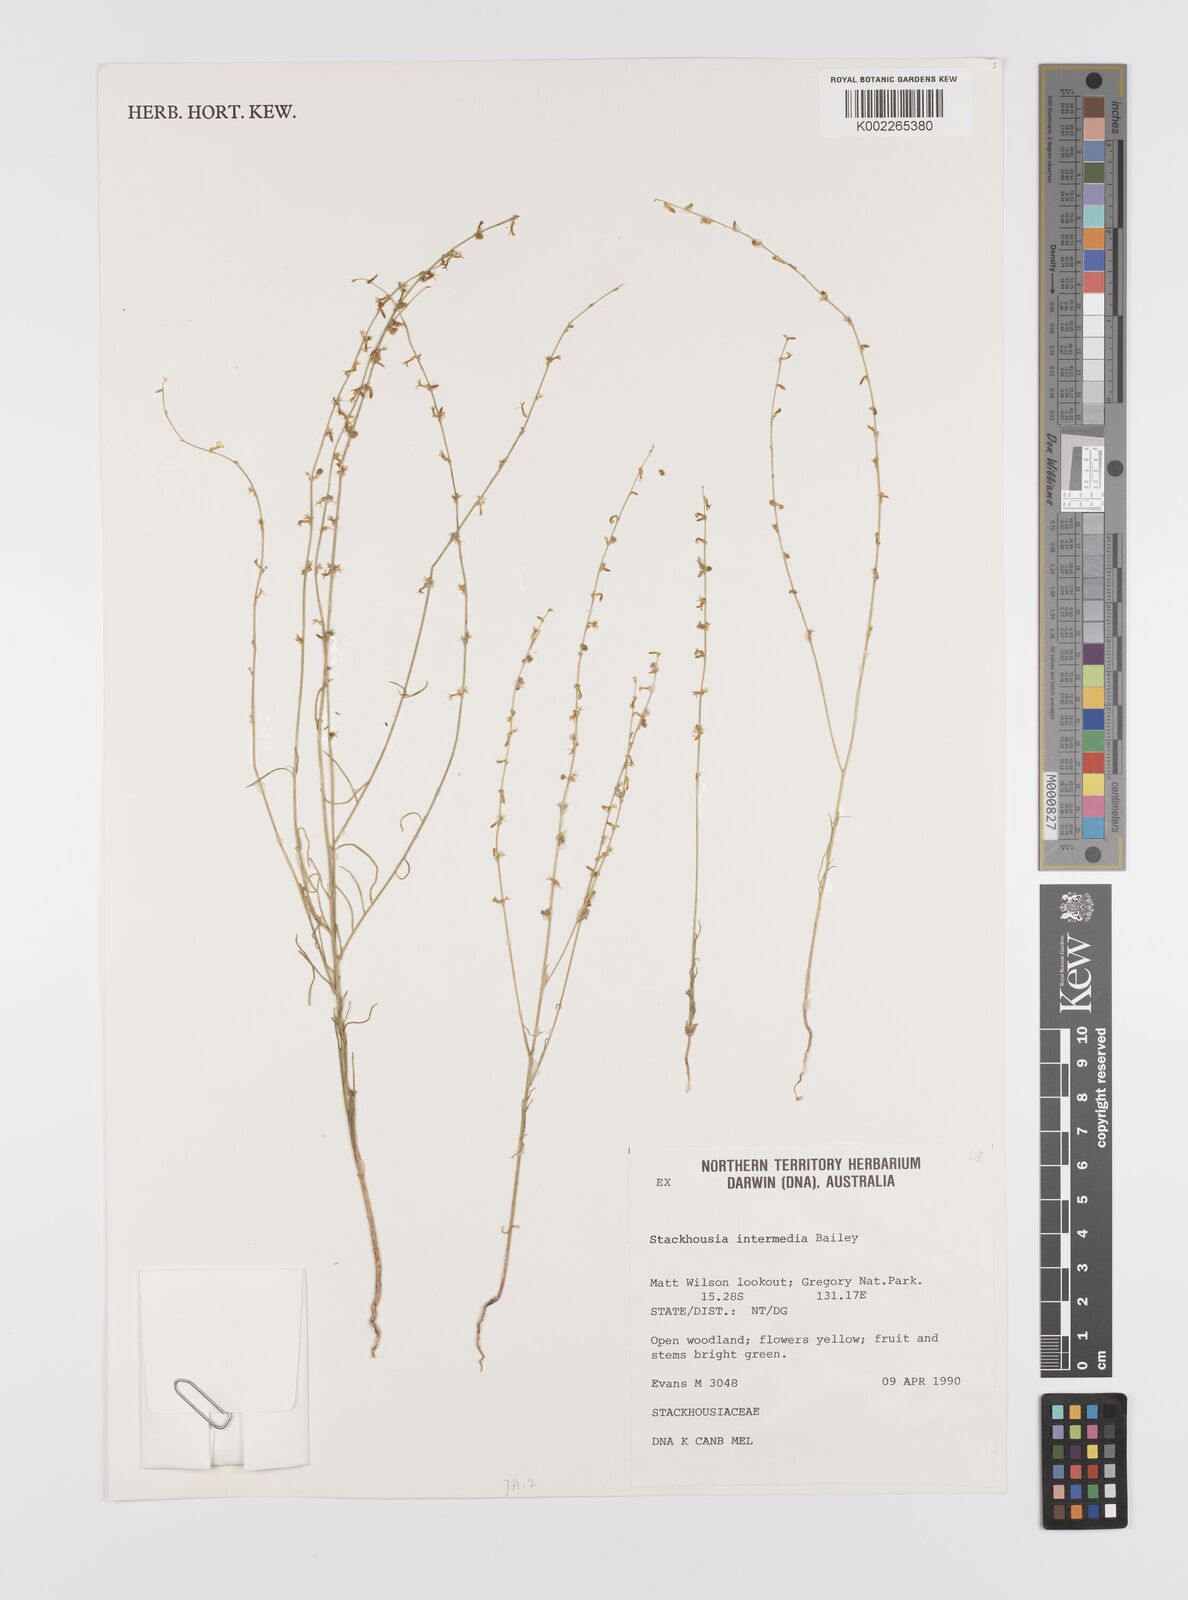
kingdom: Plantae
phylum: Tracheophyta
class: Magnoliopsida
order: Celastrales
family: Celastraceae
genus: Stackhousia
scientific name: Stackhousia intermedia
